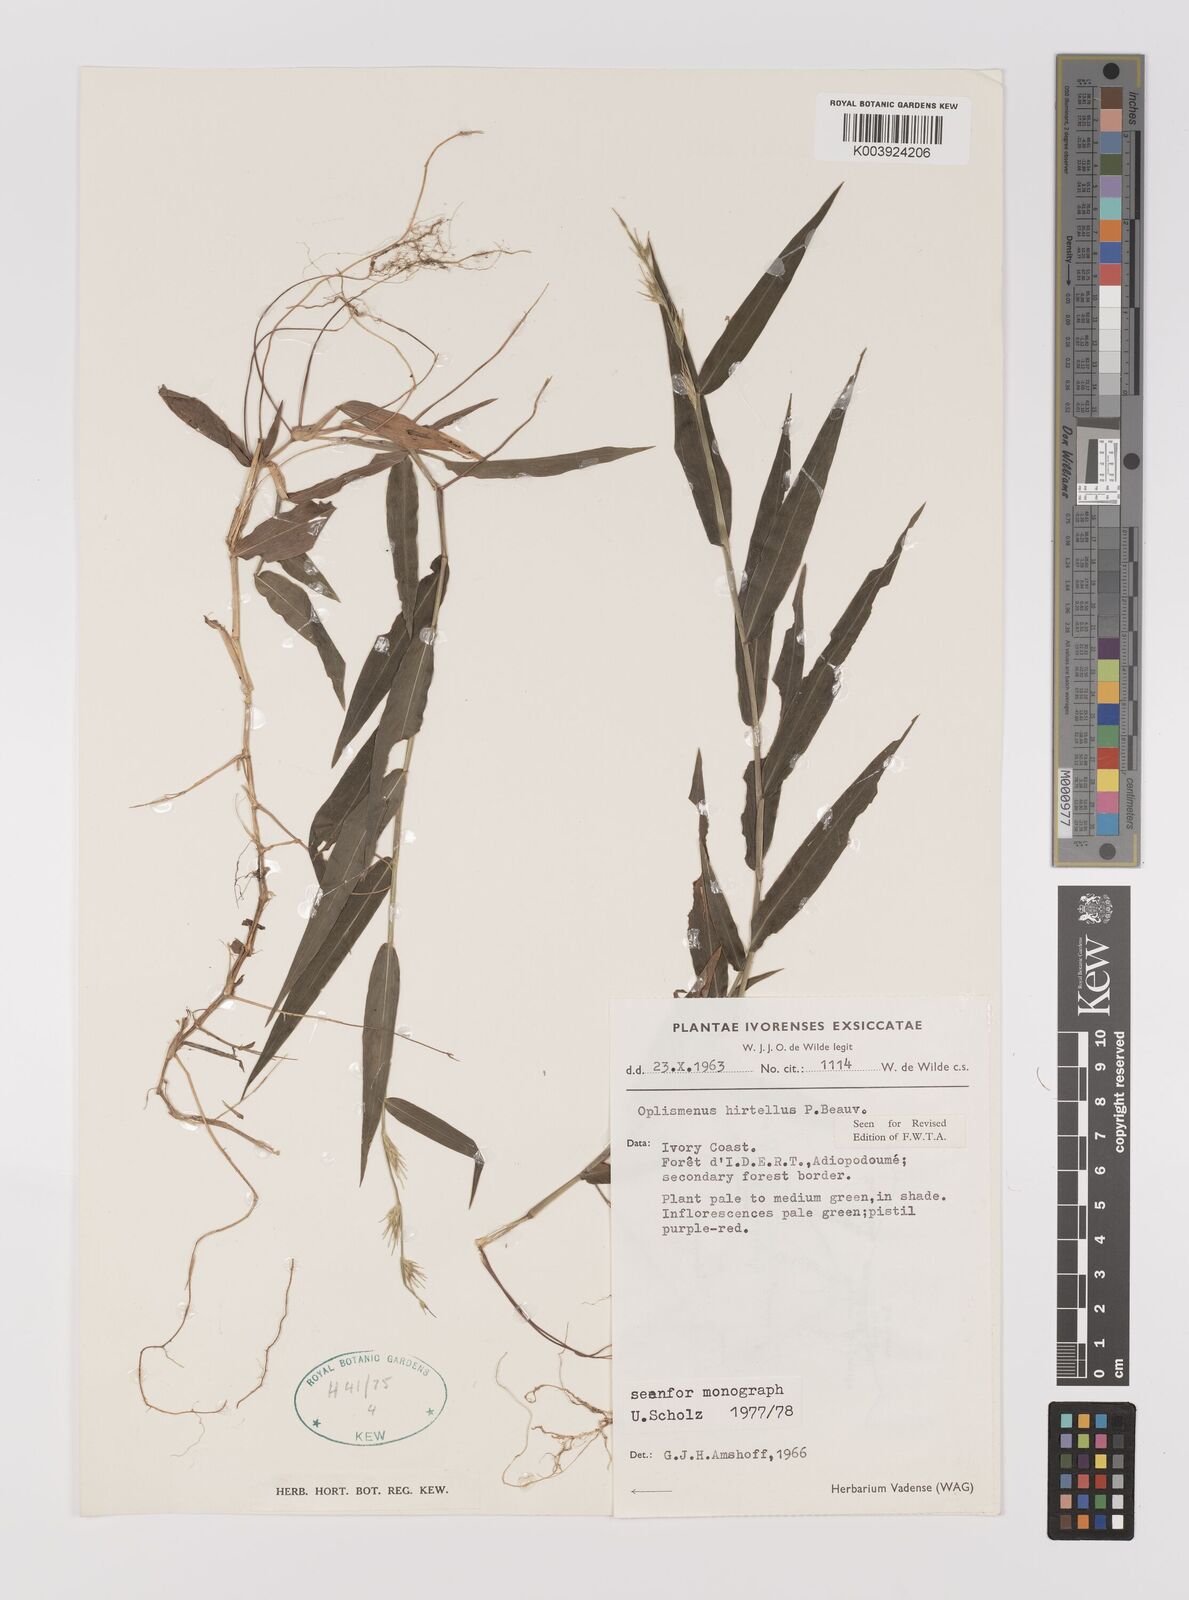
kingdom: Plantae
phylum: Tracheophyta
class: Liliopsida
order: Poales
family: Poaceae
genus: Oplismenus
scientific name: Oplismenus hirtellus
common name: Basketgrass
